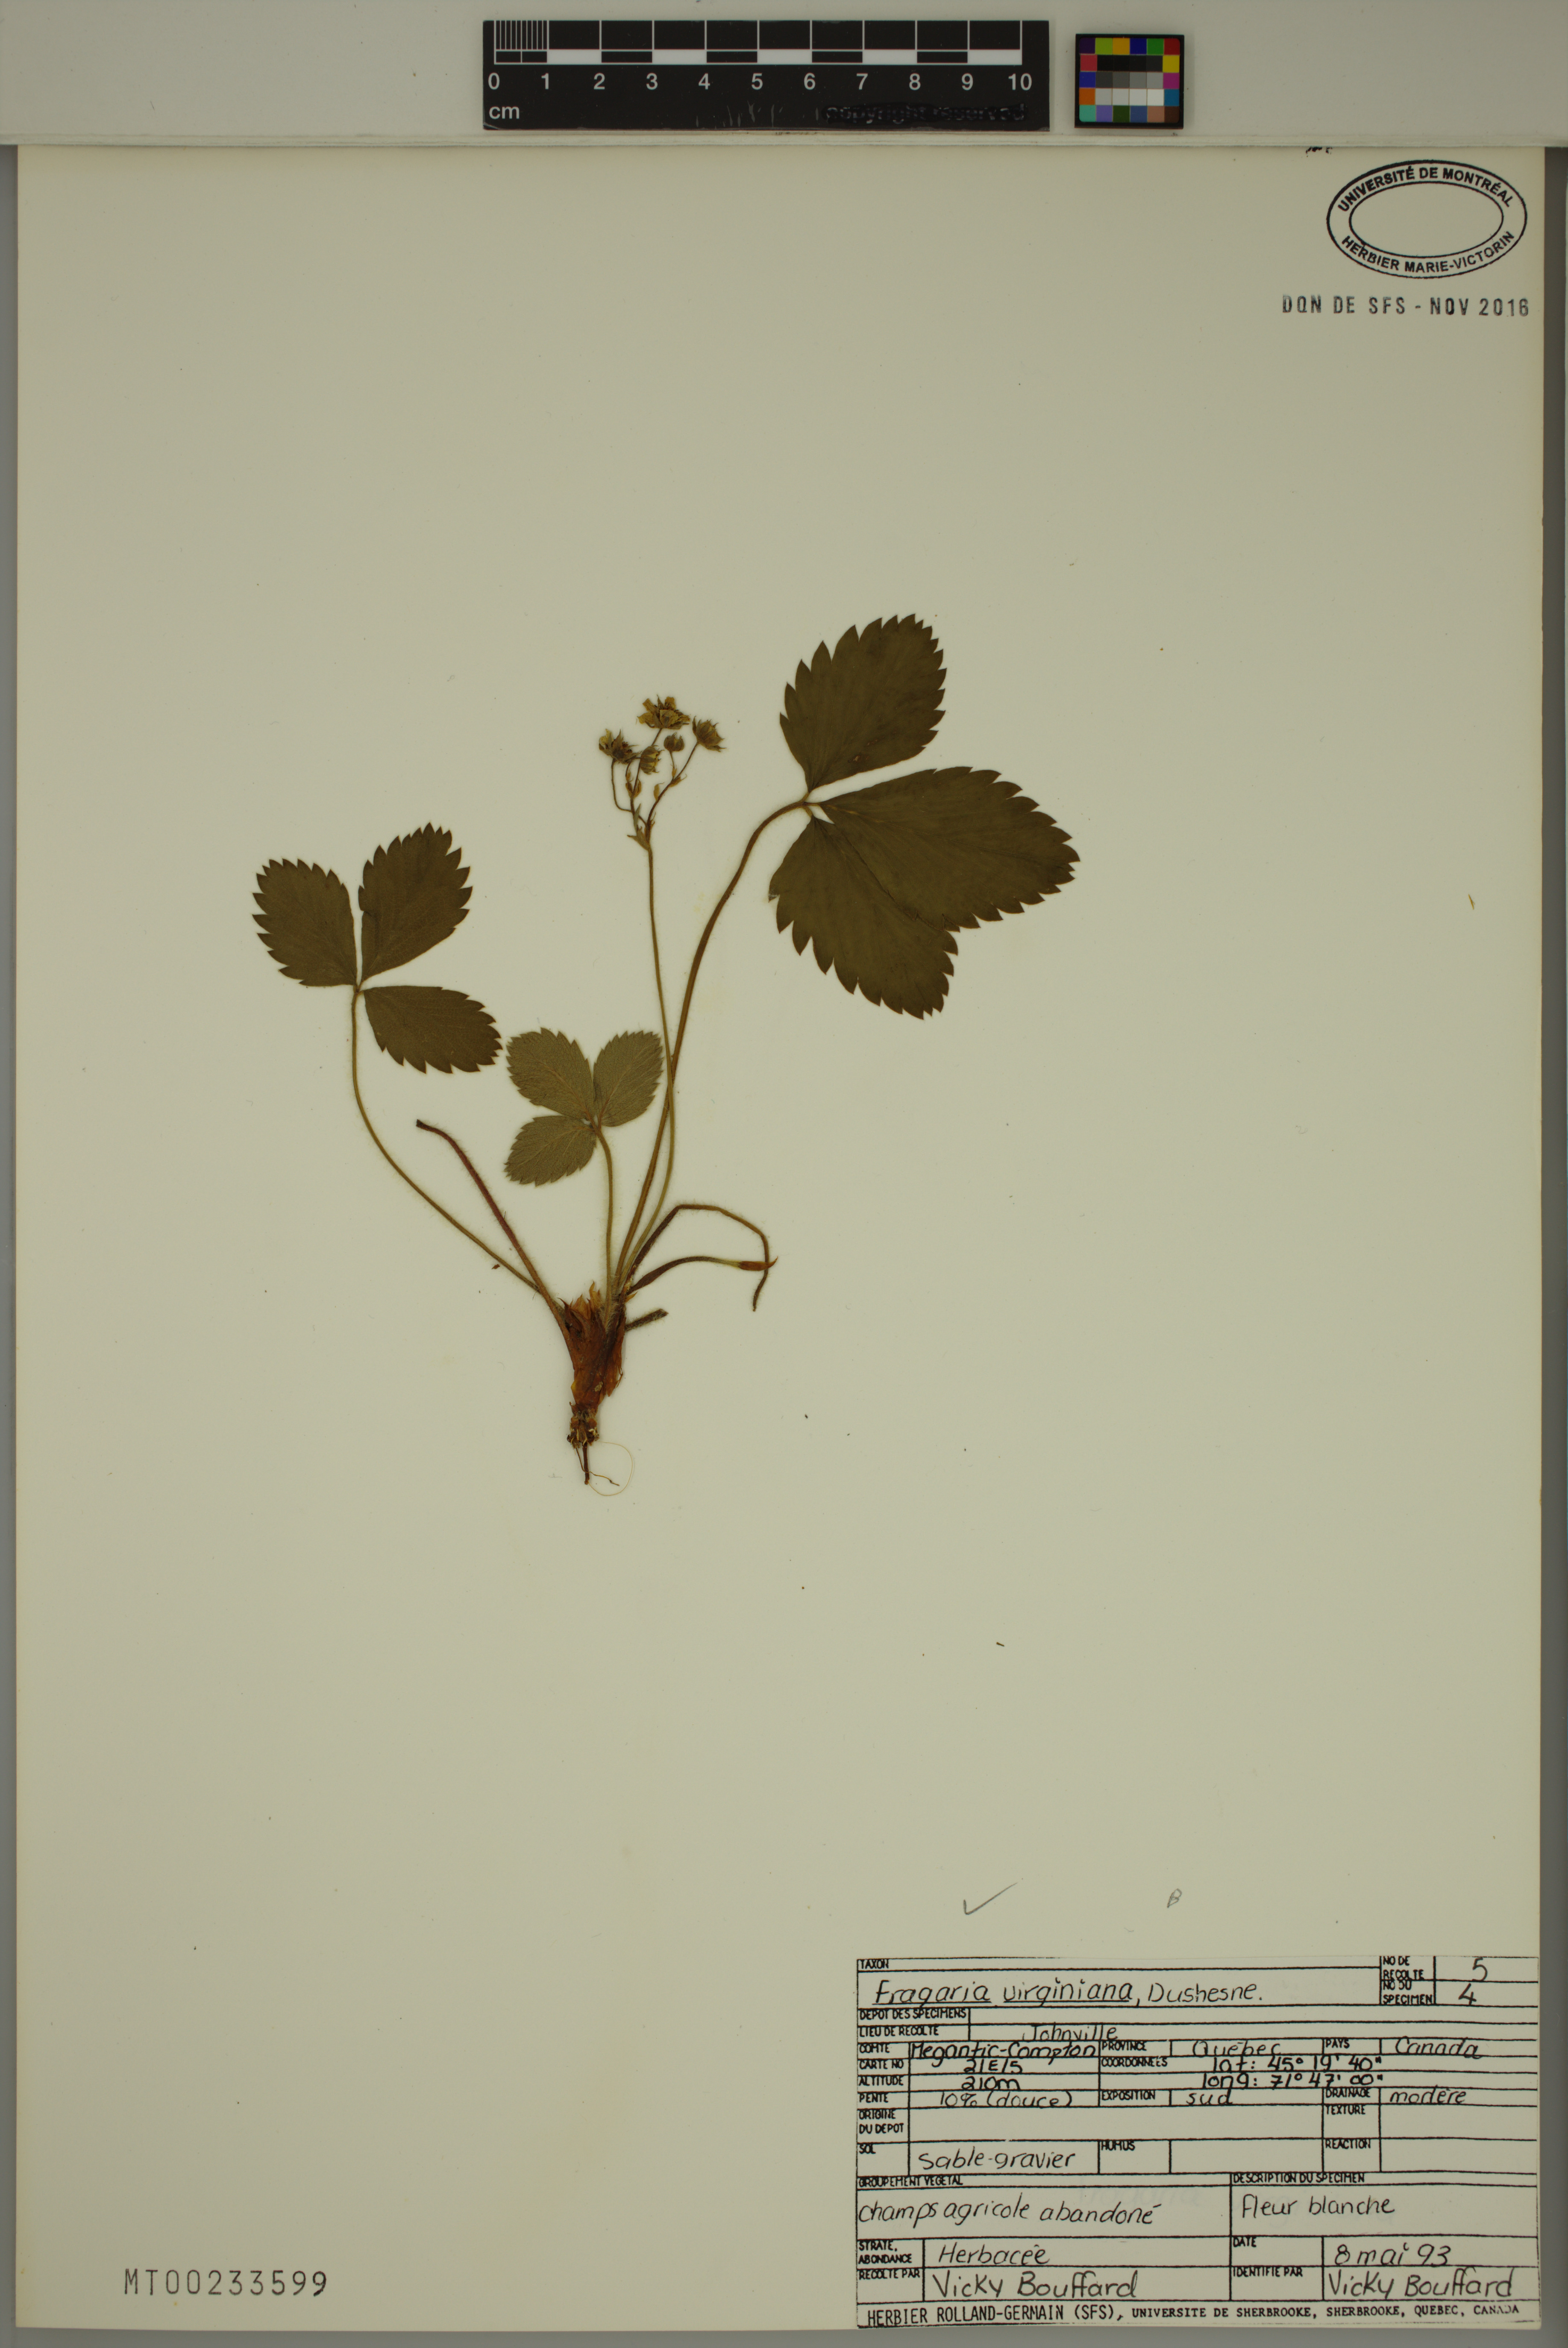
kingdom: Plantae
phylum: Tracheophyta
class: Magnoliopsida
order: Rosales
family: Rosaceae
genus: Fragaria
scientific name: Fragaria virginiana
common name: Thickleaved wild strawberry
